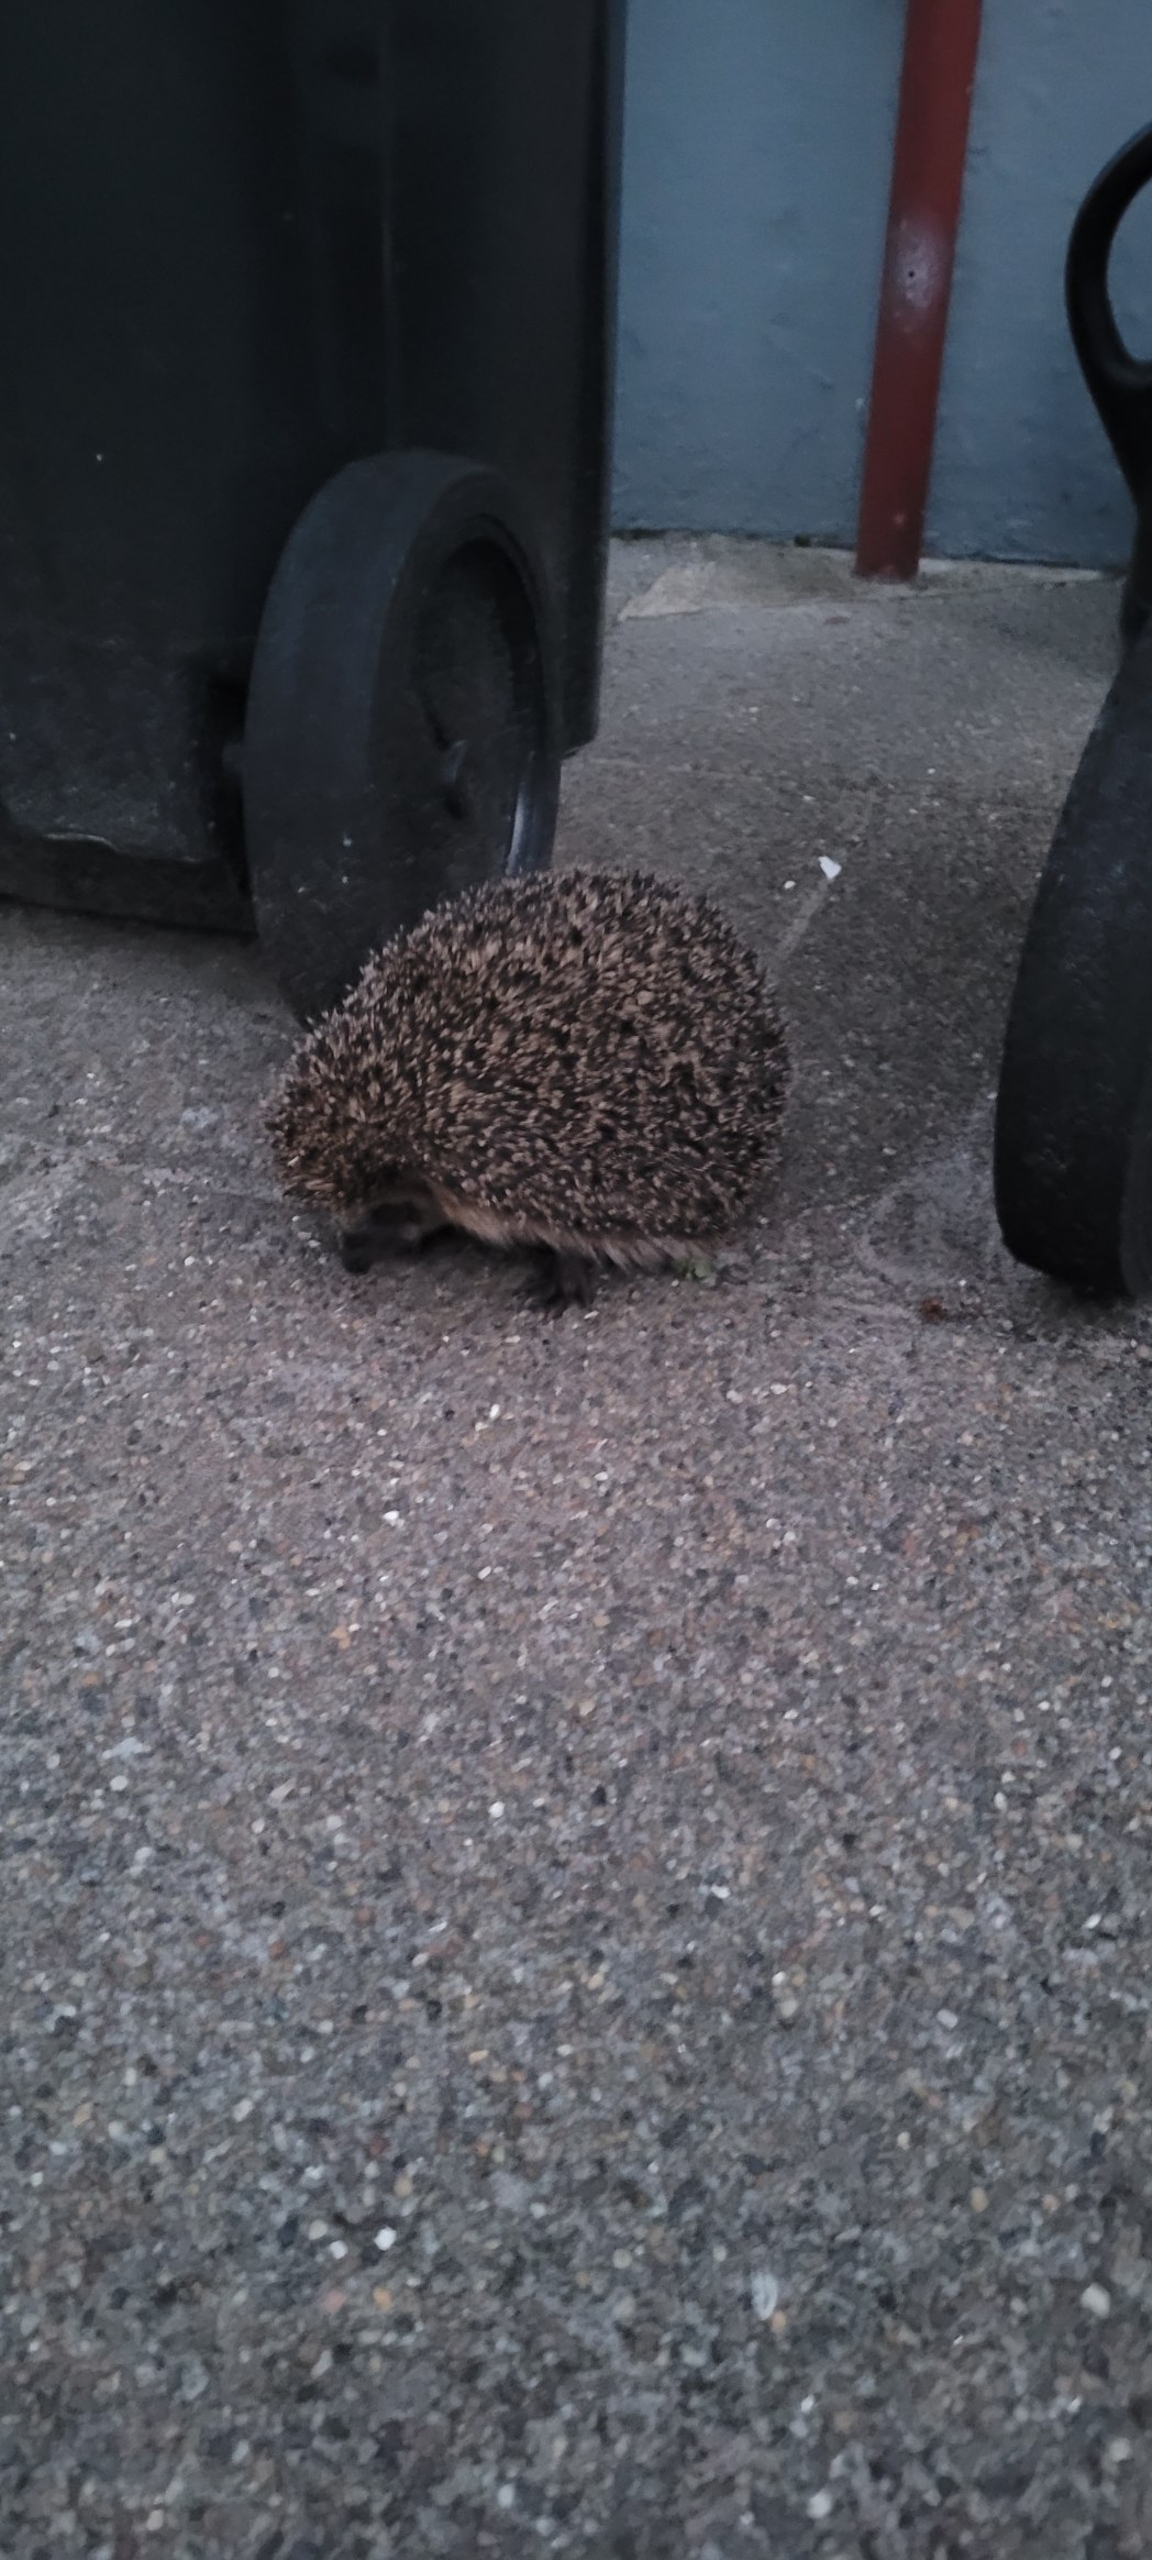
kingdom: Animalia
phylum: Chordata
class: Mammalia
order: Erinaceomorpha
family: Erinaceidae
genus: Erinaceus
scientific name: Erinaceus europaeus
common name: Pindsvin
